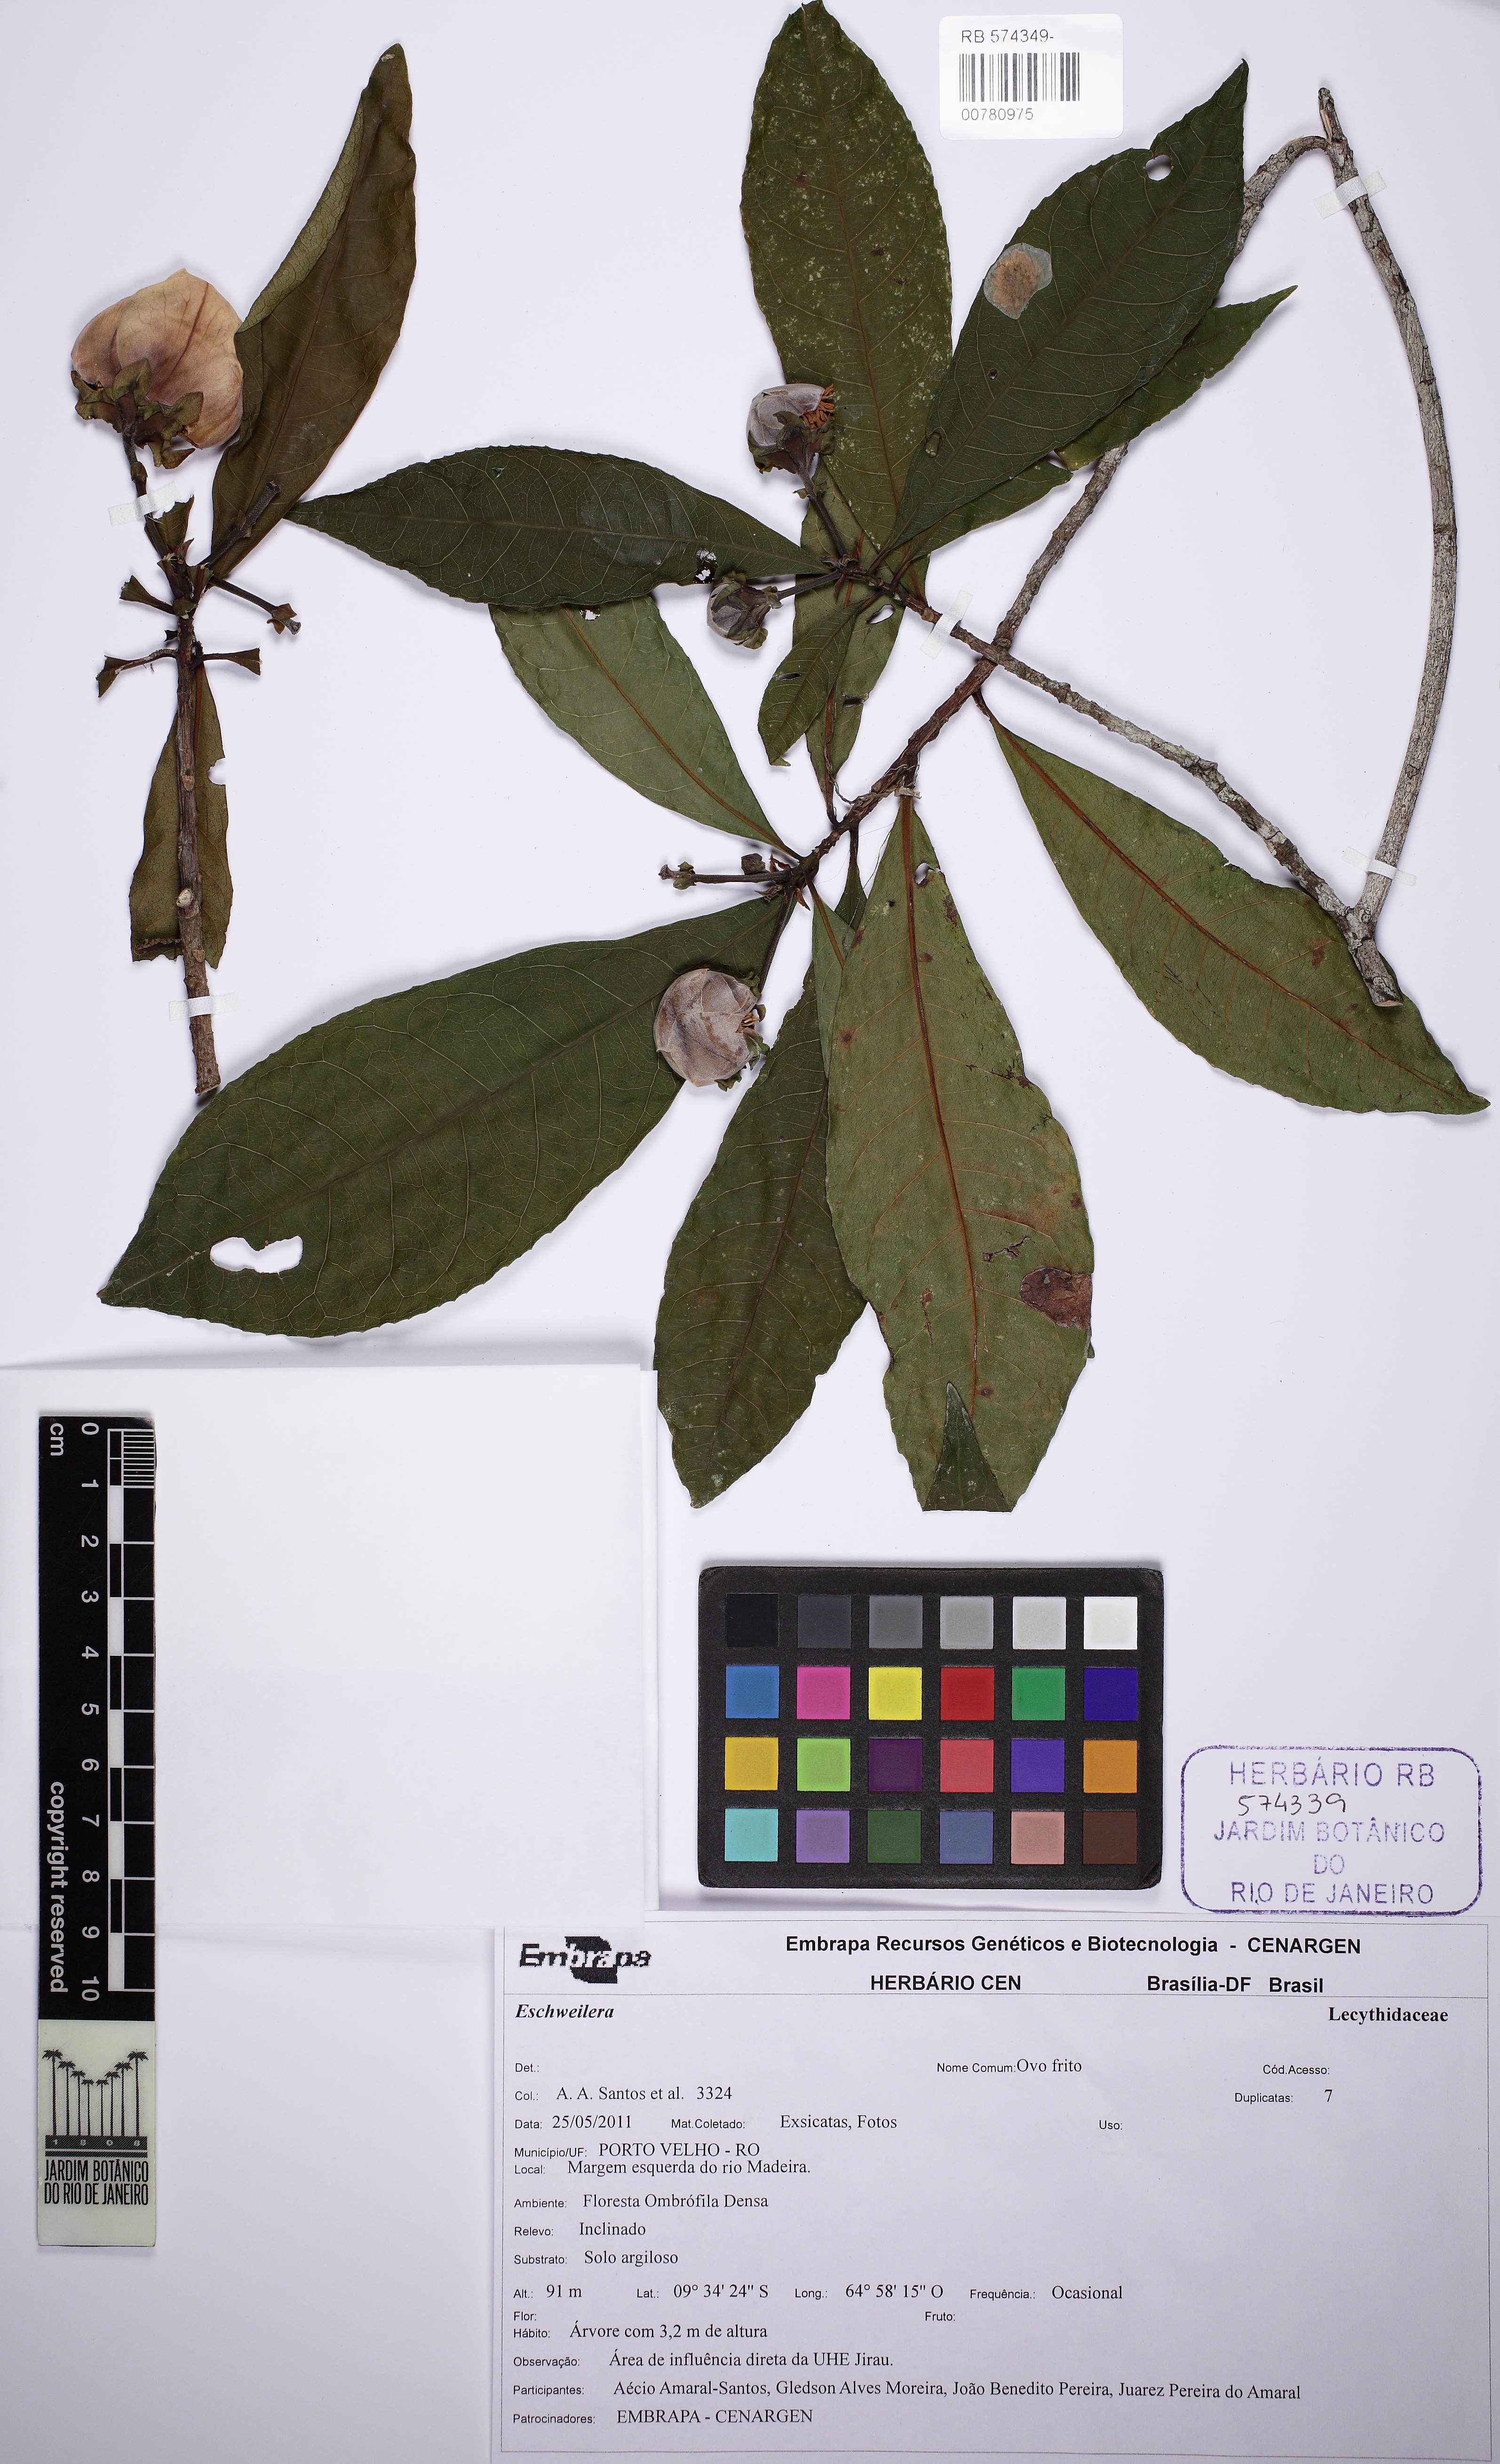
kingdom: Plantae
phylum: Tracheophyta
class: Magnoliopsida
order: Ericales
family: Lecythidaceae
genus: Gustavia
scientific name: Gustavia hexapetala
